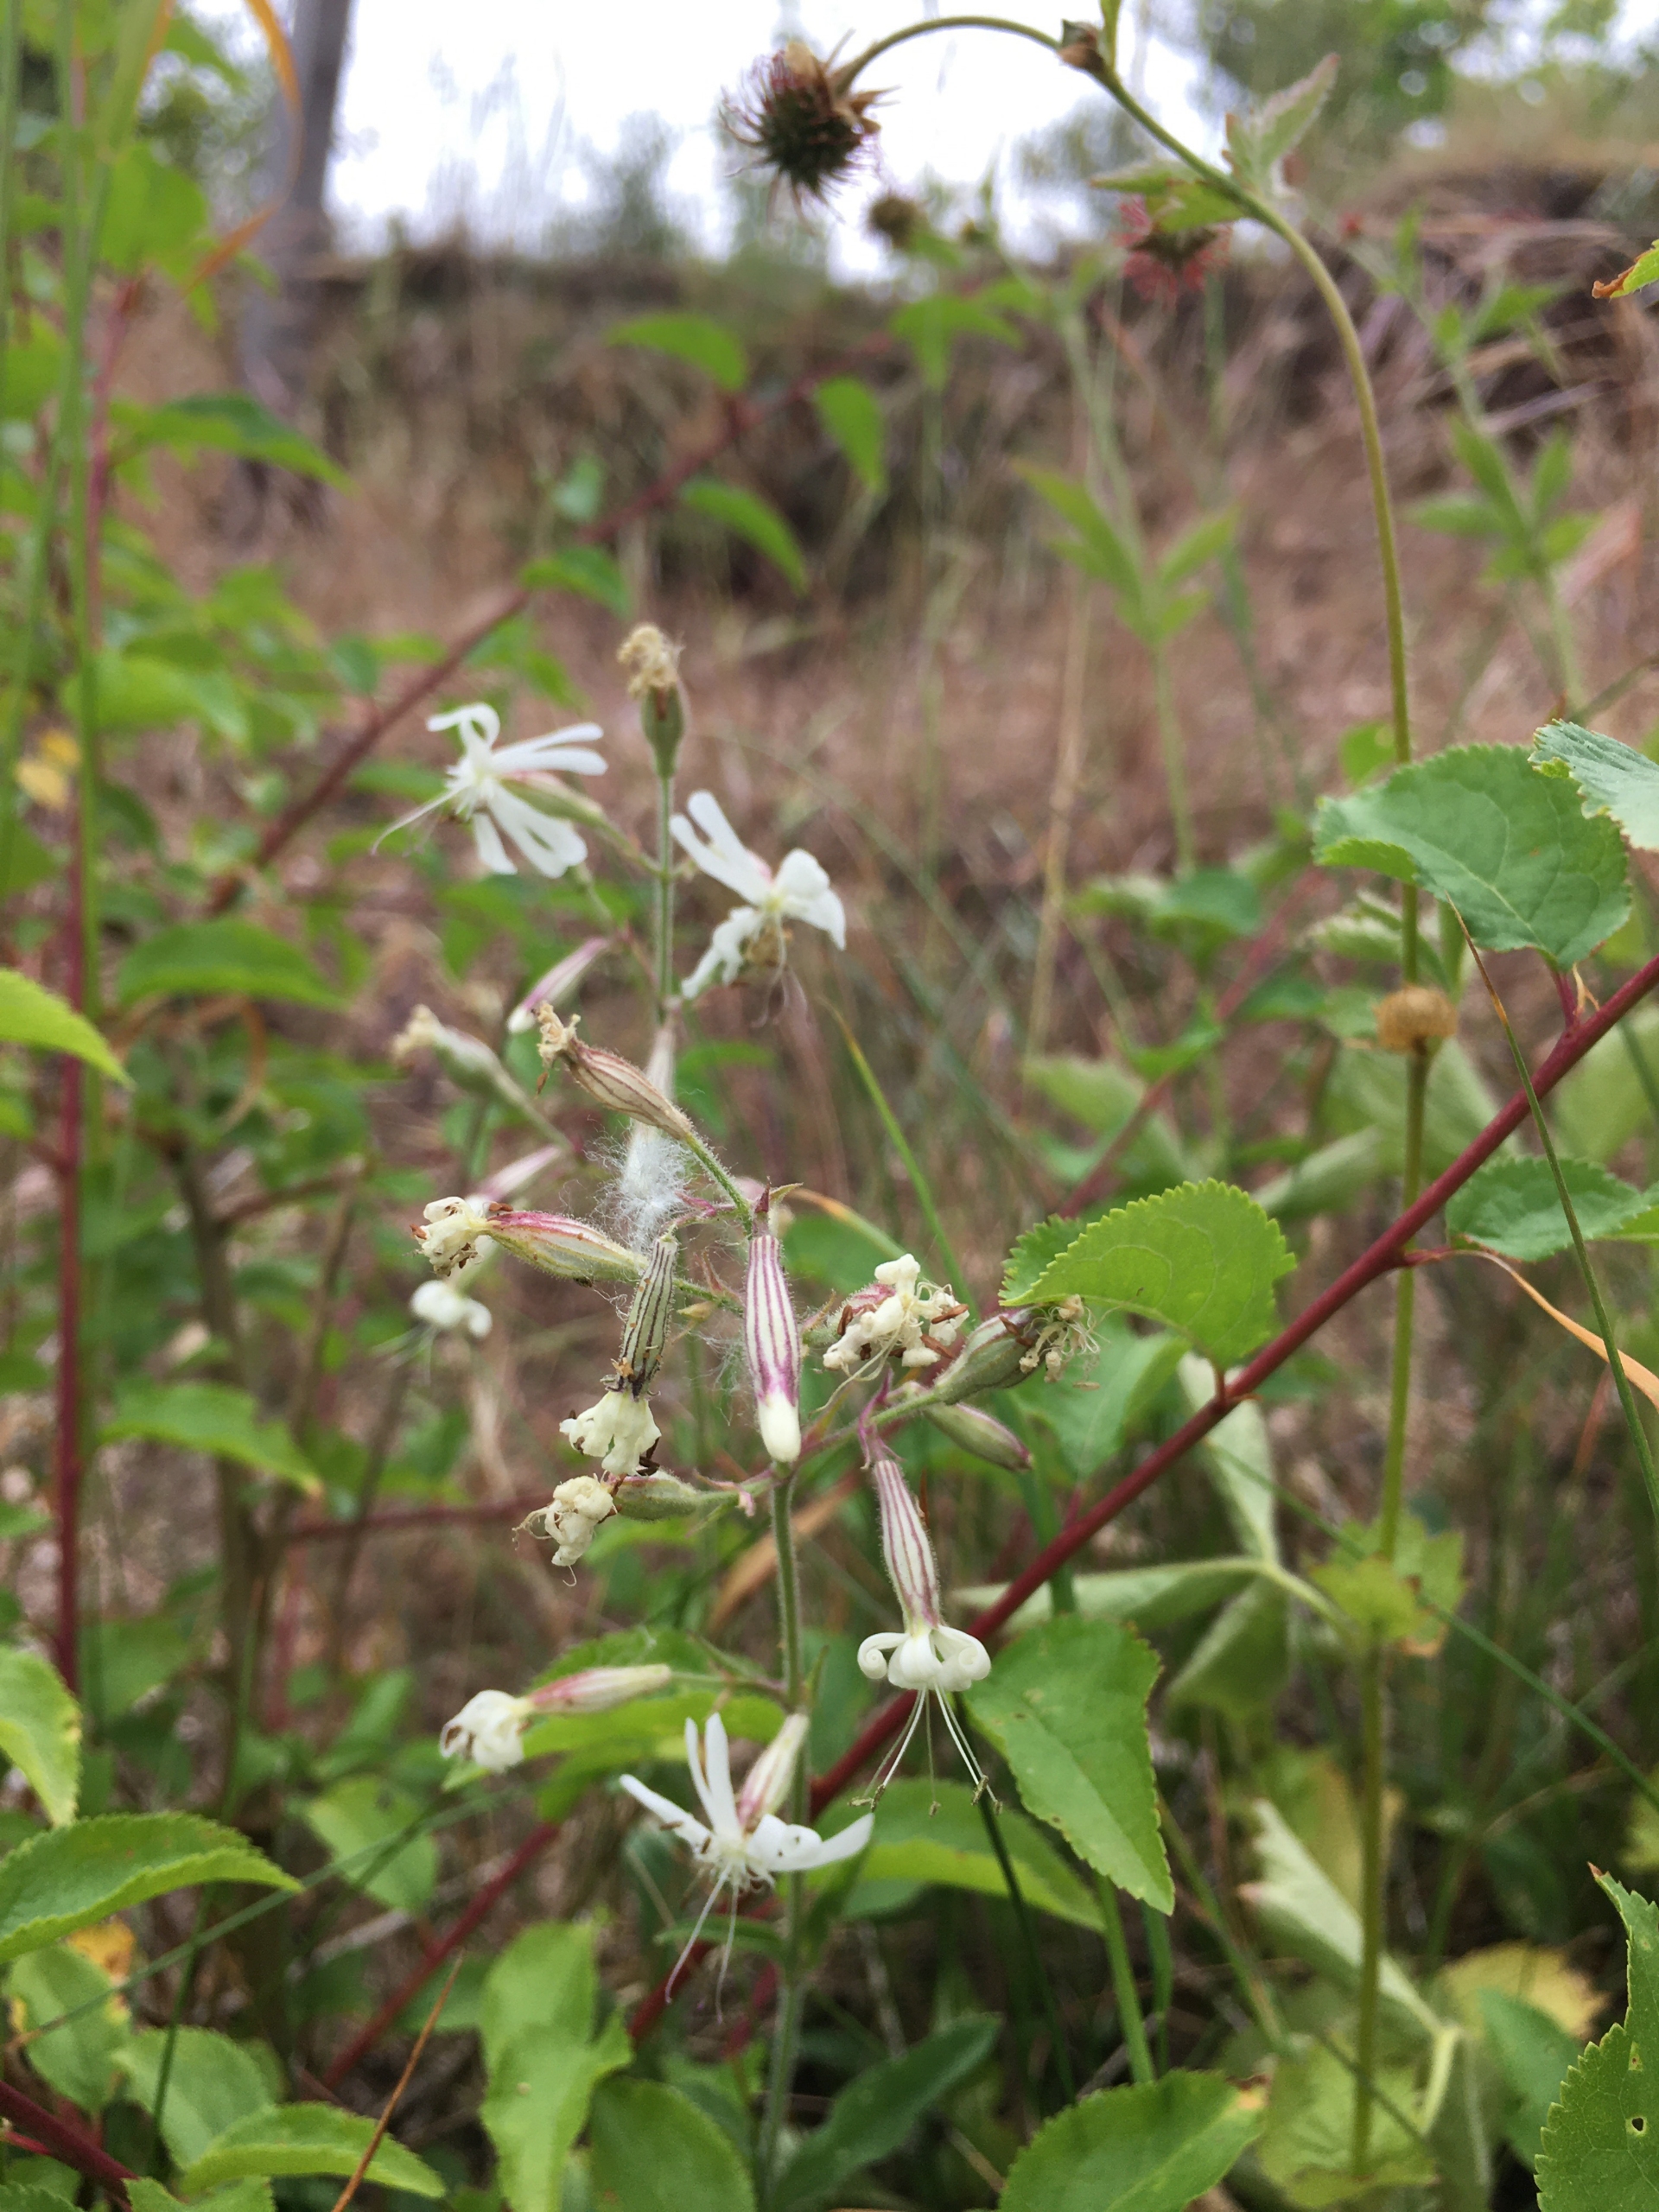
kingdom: Plantae
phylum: Tracheophyta
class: Magnoliopsida
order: Caryophyllales
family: Caryophyllaceae
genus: Silene
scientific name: Silene nutans
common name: Nikkende limurt
